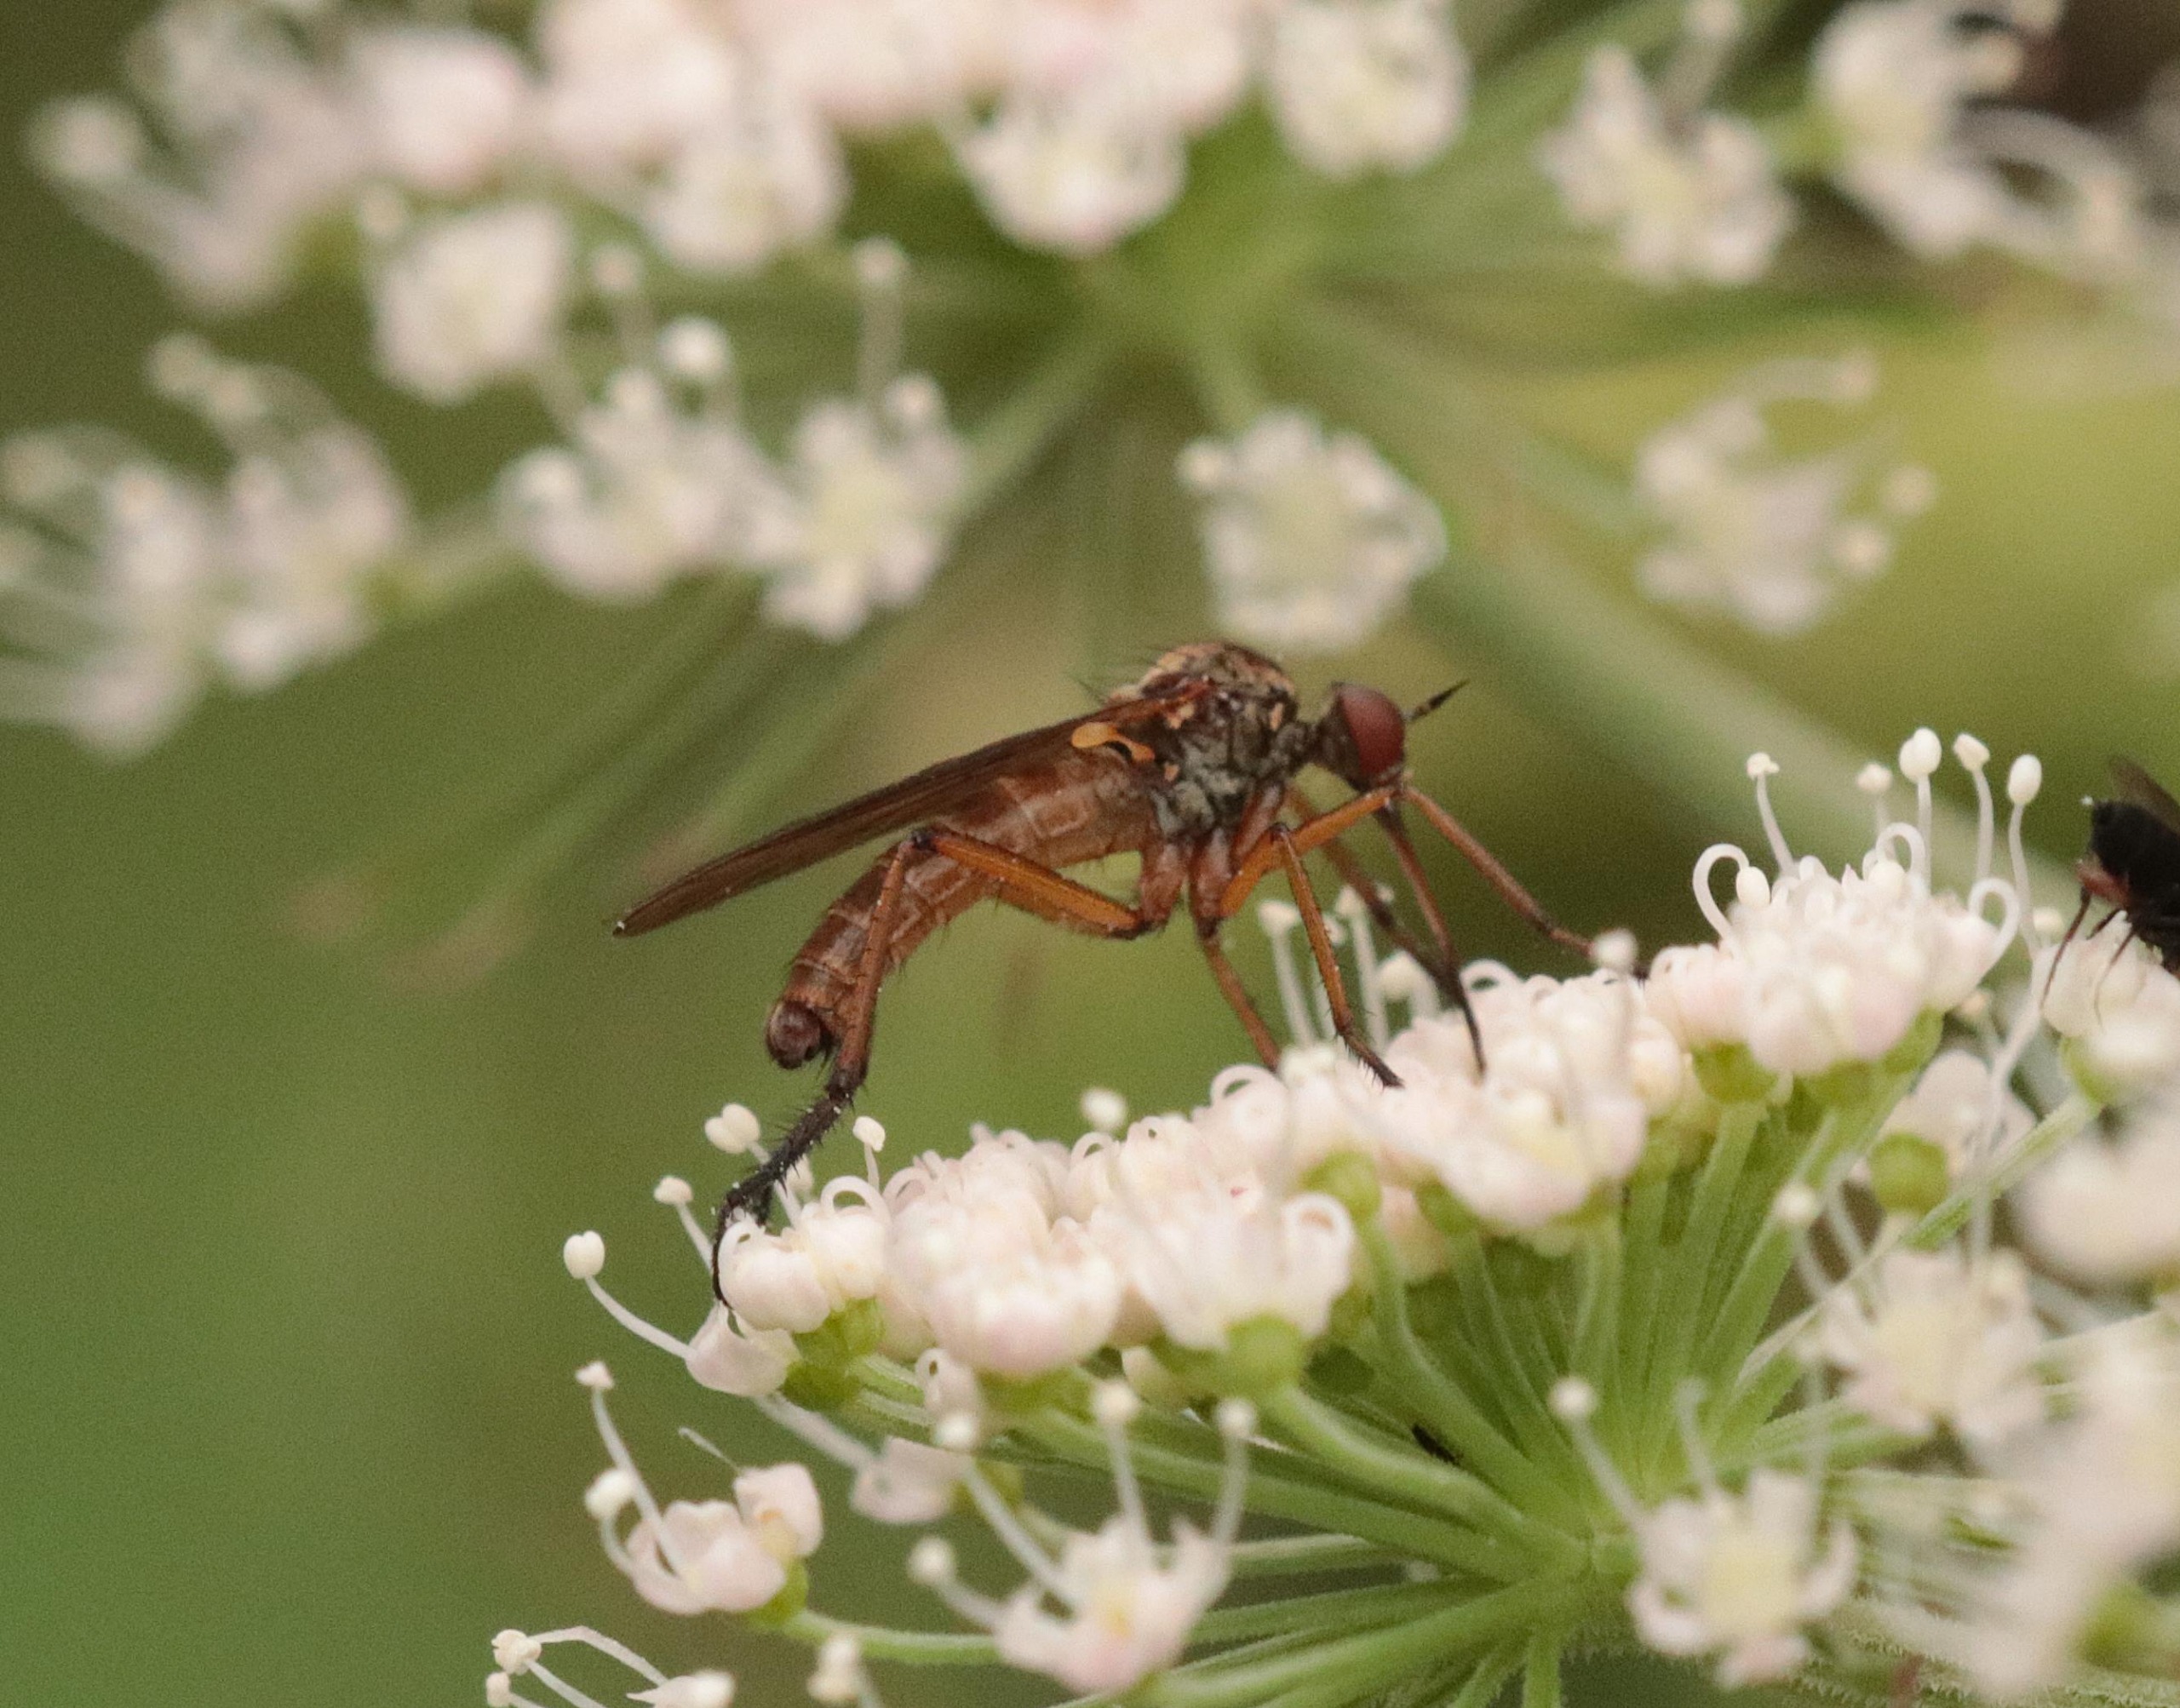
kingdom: Animalia
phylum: Arthropoda
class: Insecta
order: Diptera
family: Empididae
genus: Empis
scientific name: Empis livida
